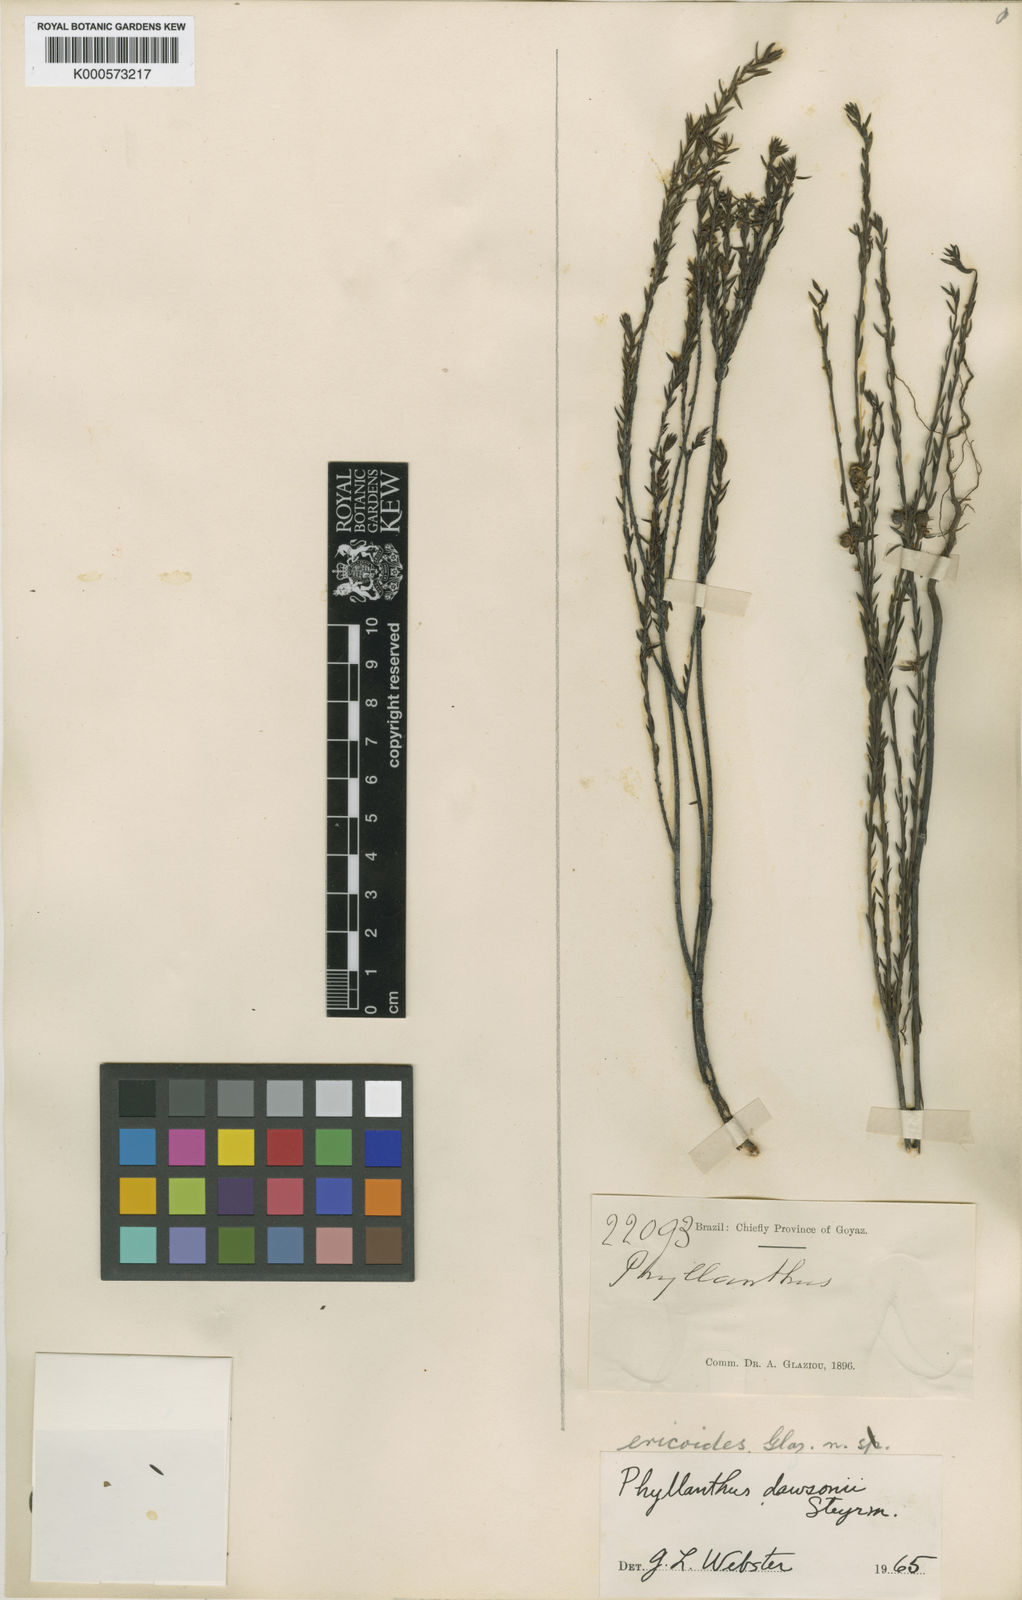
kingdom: Plantae
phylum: Tracheophyta
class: Magnoliopsida
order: Malpighiales
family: Phyllanthaceae
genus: Phyllanthus
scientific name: Phyllanthus dawsonii
